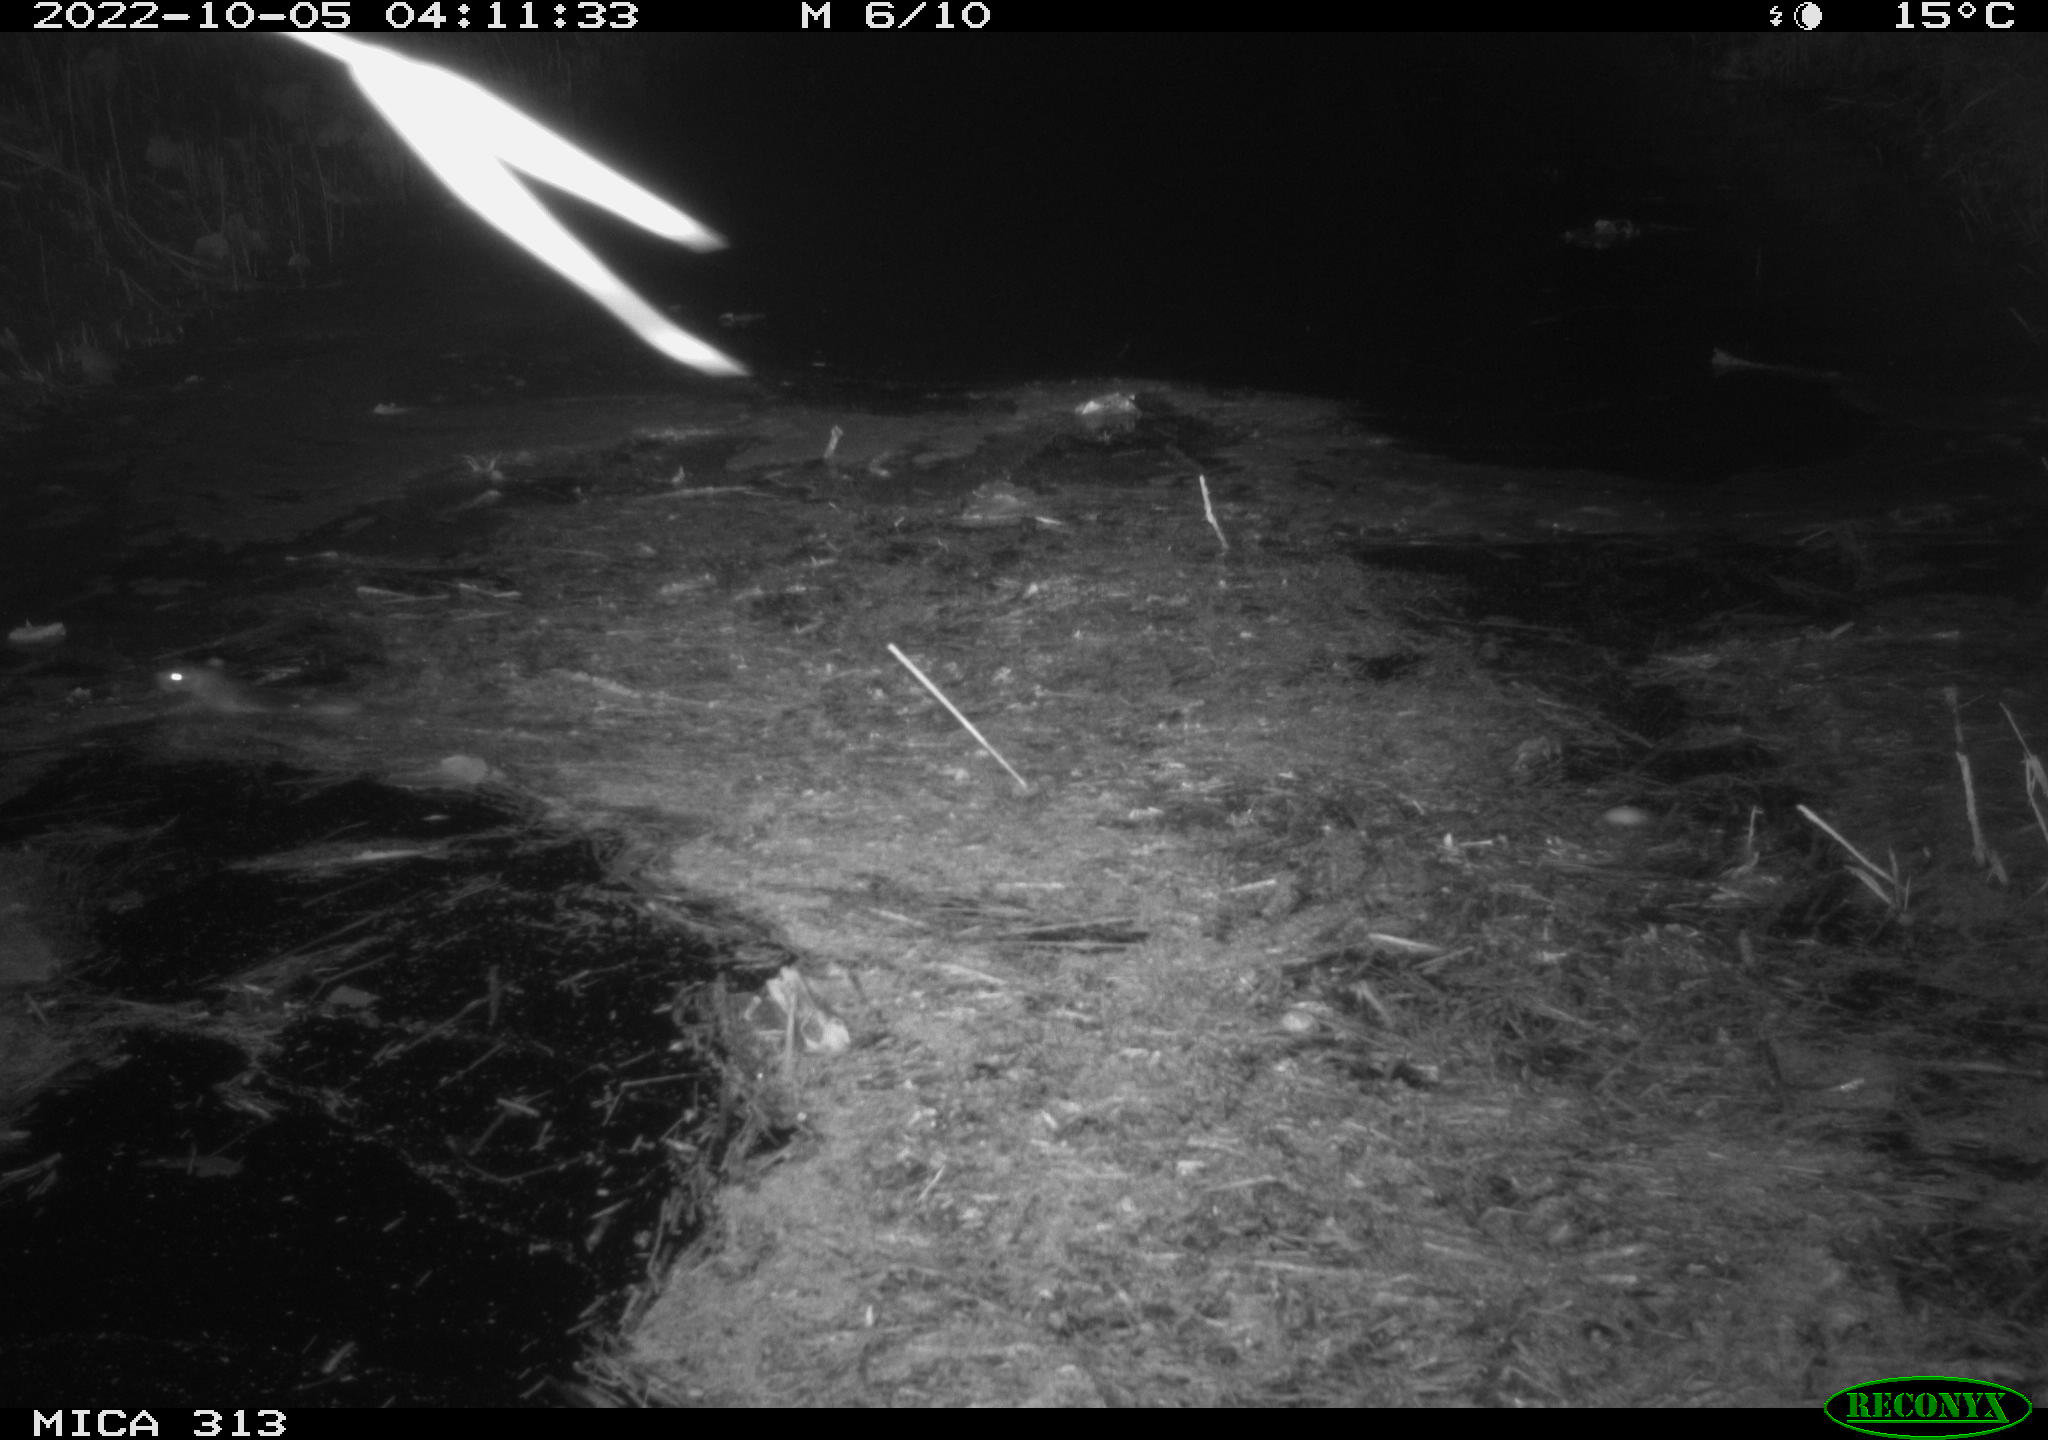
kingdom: Animalia
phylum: Chordata
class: Mammalia
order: Rodentia
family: Muridae
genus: Rattus
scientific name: Rattus norvegicus
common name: Brown rat
